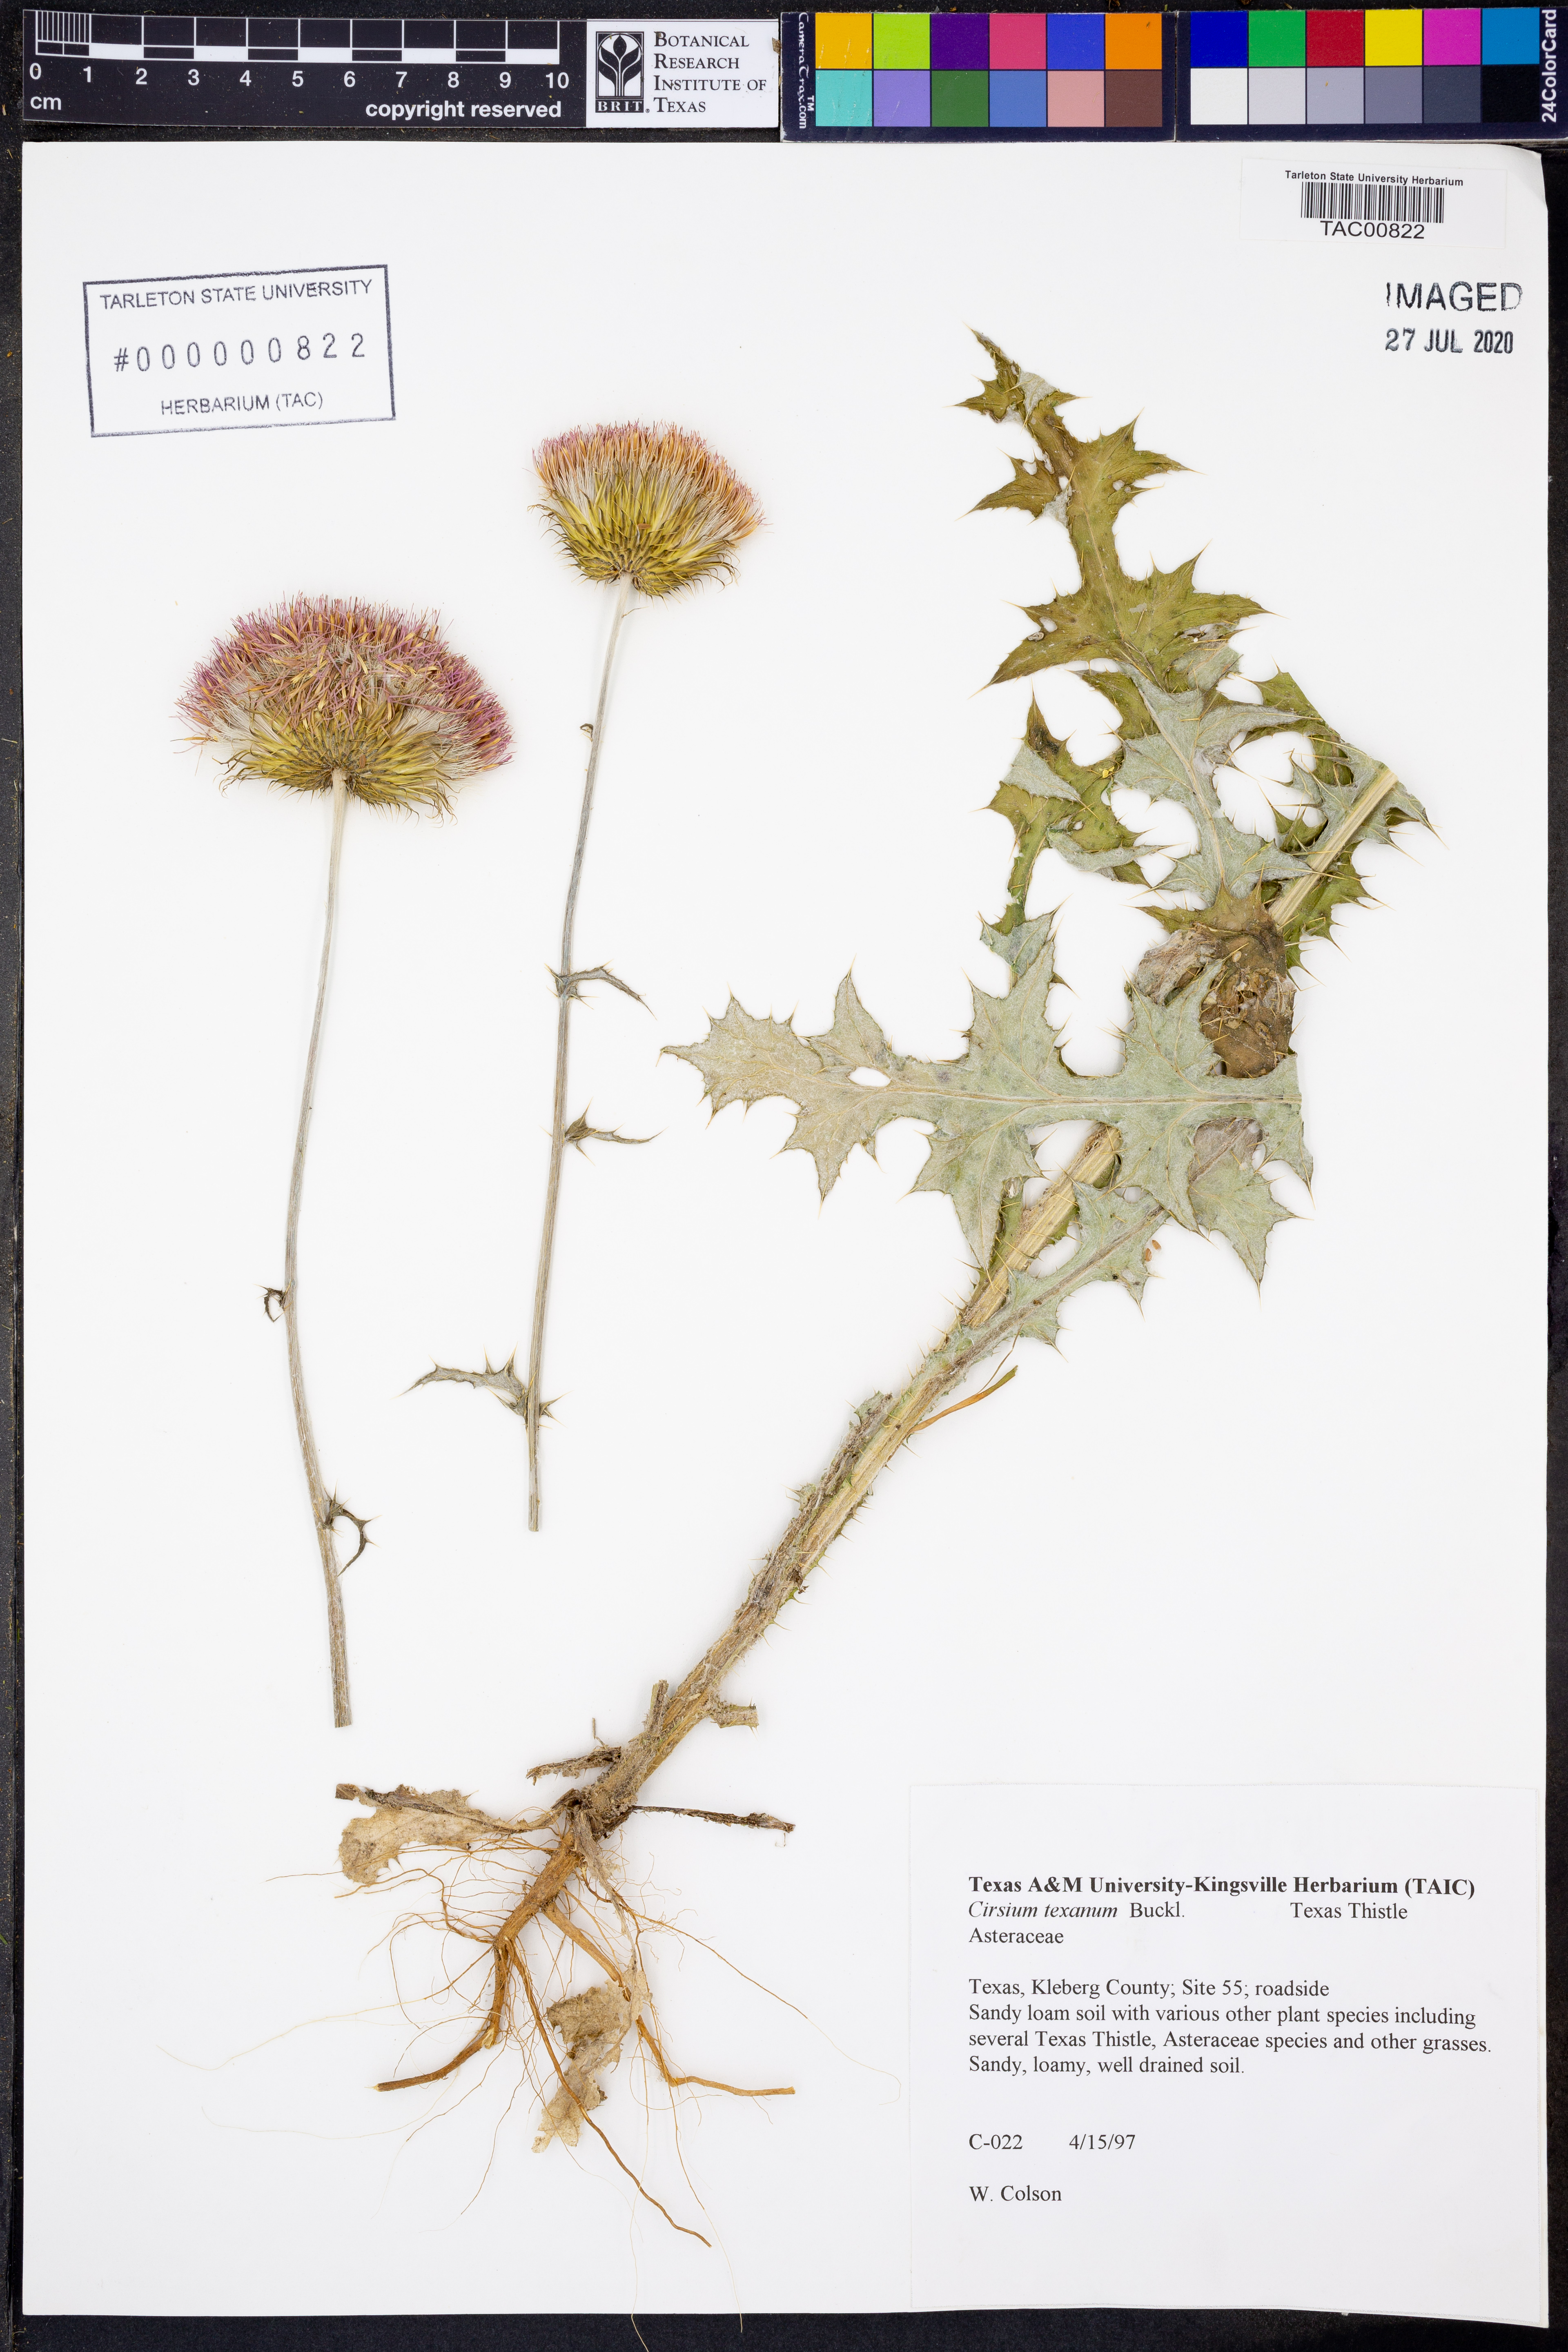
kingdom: Plantae
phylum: Tracheophyta
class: Magnoliopsida
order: Asterales
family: Asteraceae
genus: Cirsium
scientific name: Cirsium texanum
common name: Texas purple thistle
